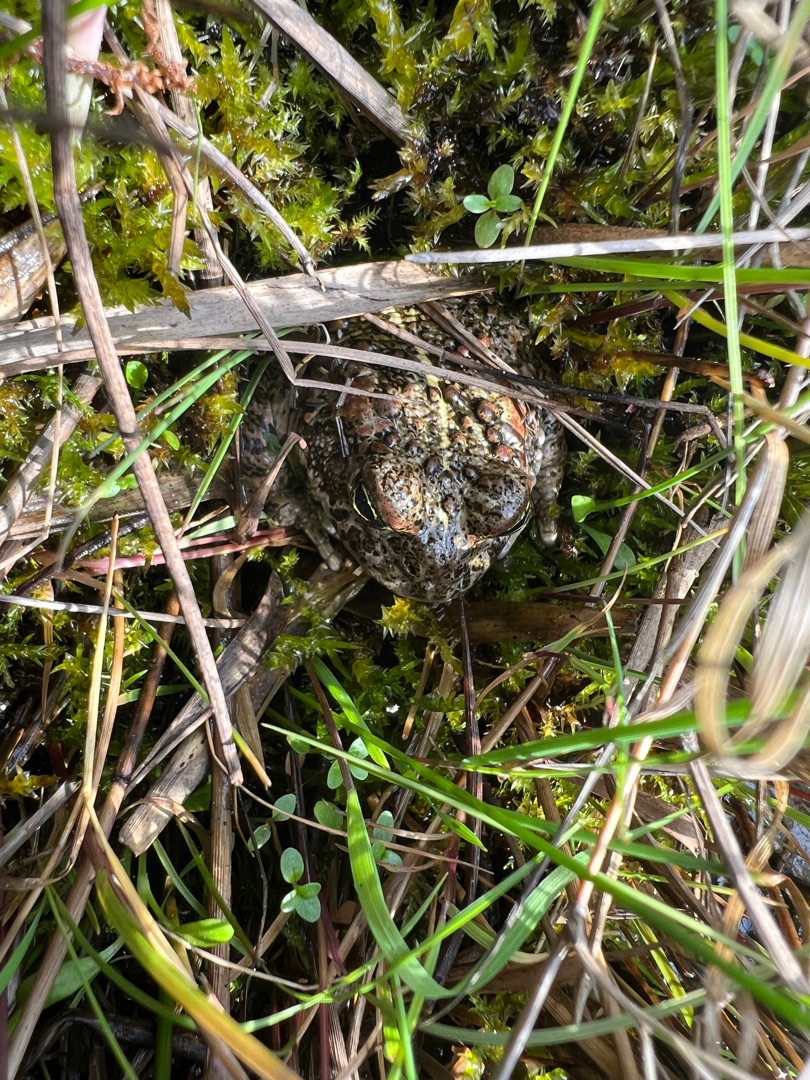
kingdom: Animalia
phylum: Chordata
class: Amphibia
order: Anura
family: Bufonidae
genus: Epidalea
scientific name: Epidalea calamita
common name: Strandtudse
